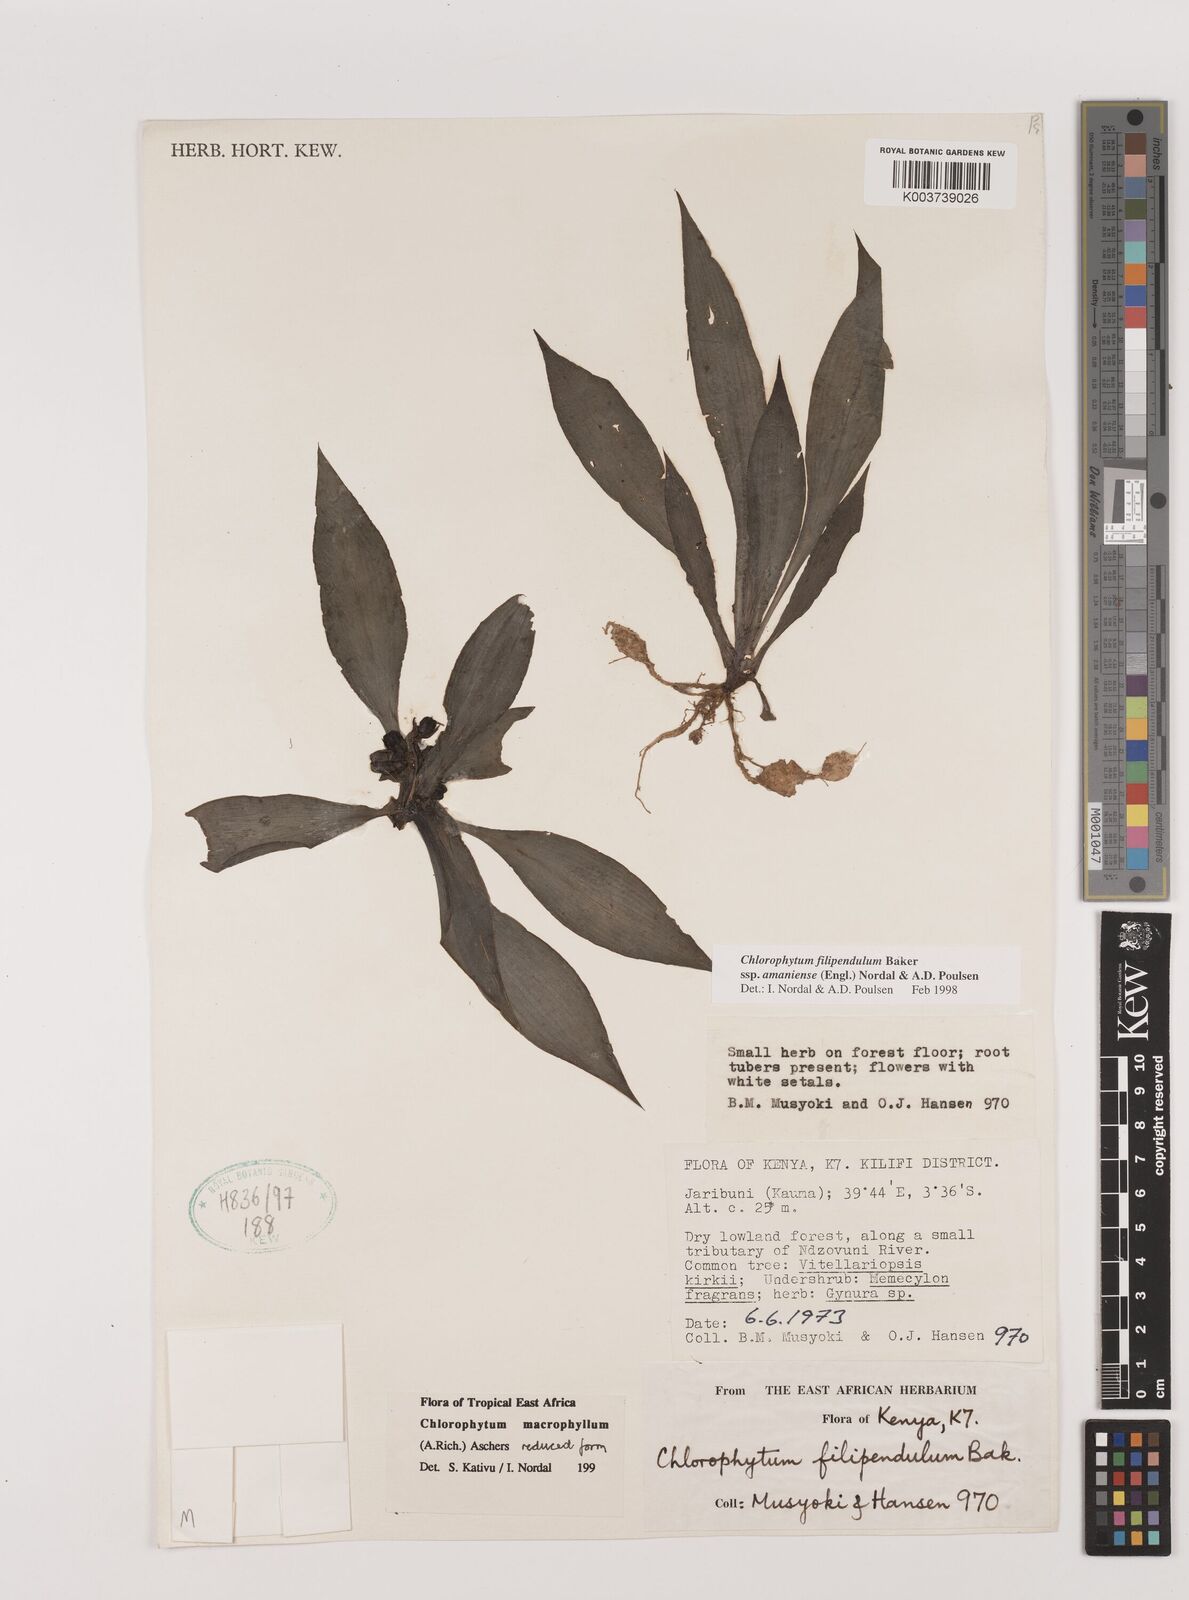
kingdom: Plantae
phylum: Tracheophyta
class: Liliopsida
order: Asparagales
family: Asparagaceae
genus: Chlorophytum
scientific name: Chlorophytum filipendulum
